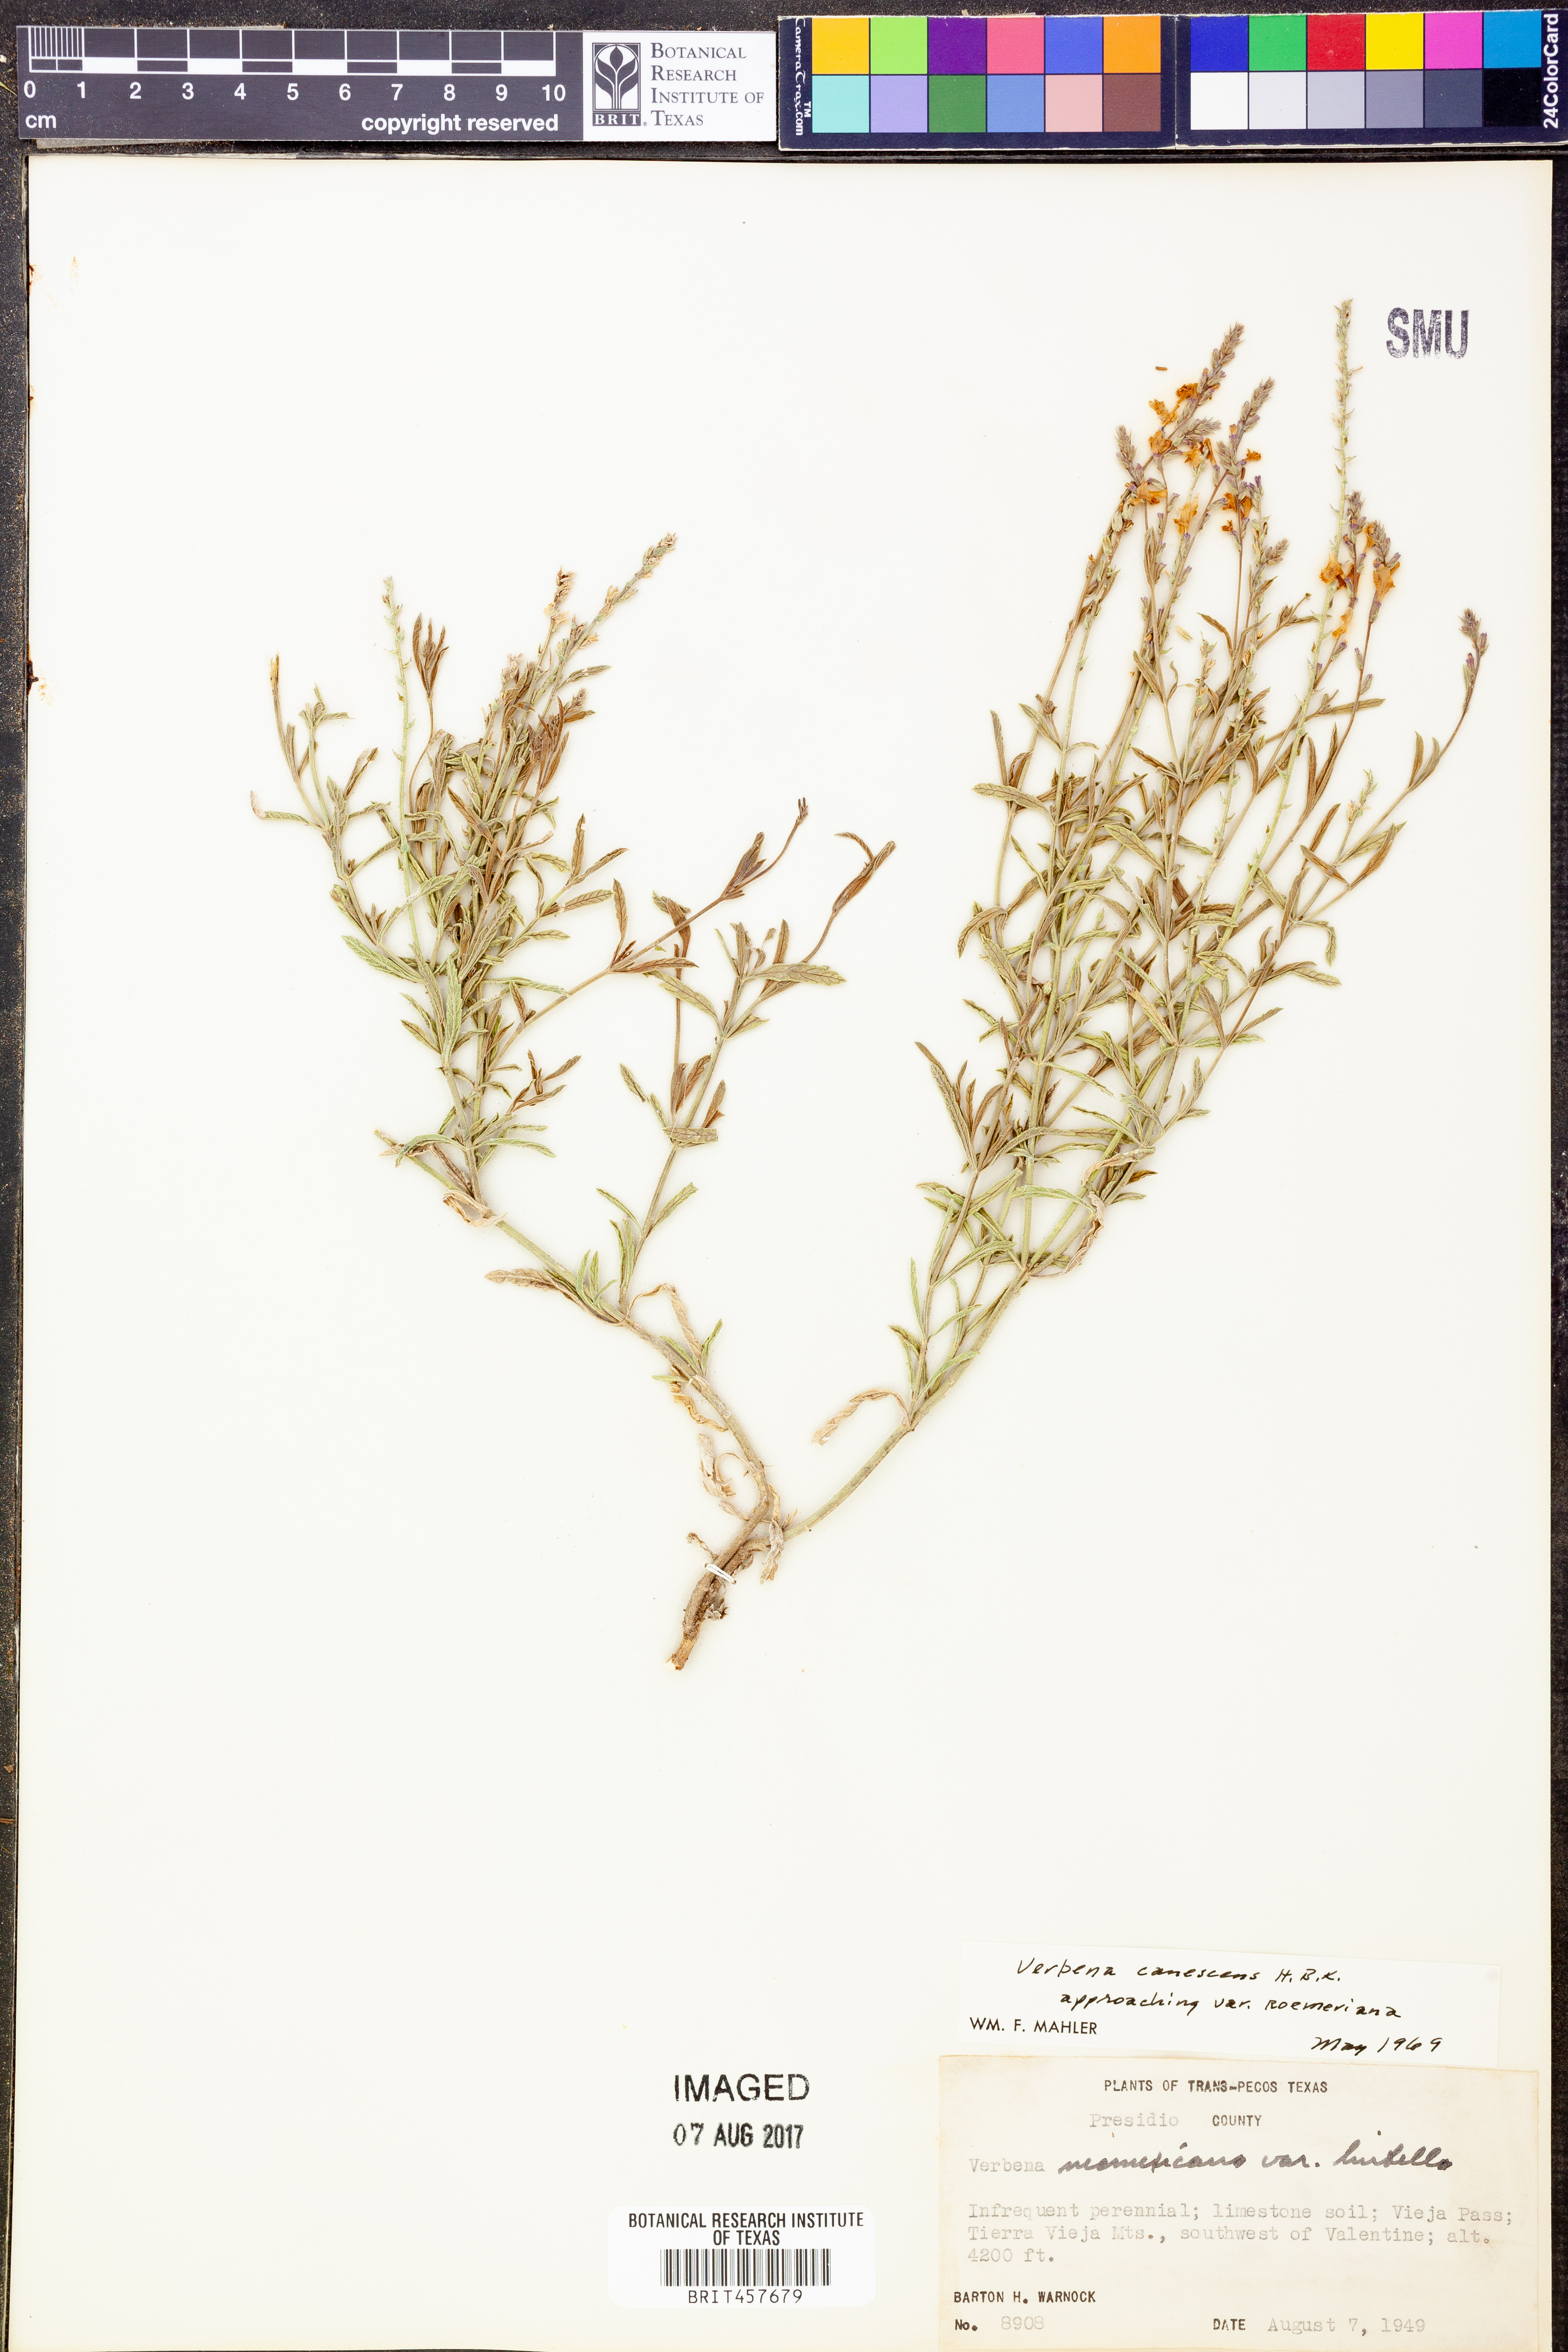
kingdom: Plantae
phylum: Tracheophyta
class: Magnoliopsida
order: Lamiales
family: Verbenaceae
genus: Verbena
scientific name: Verbena canescens
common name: Gray vervain
